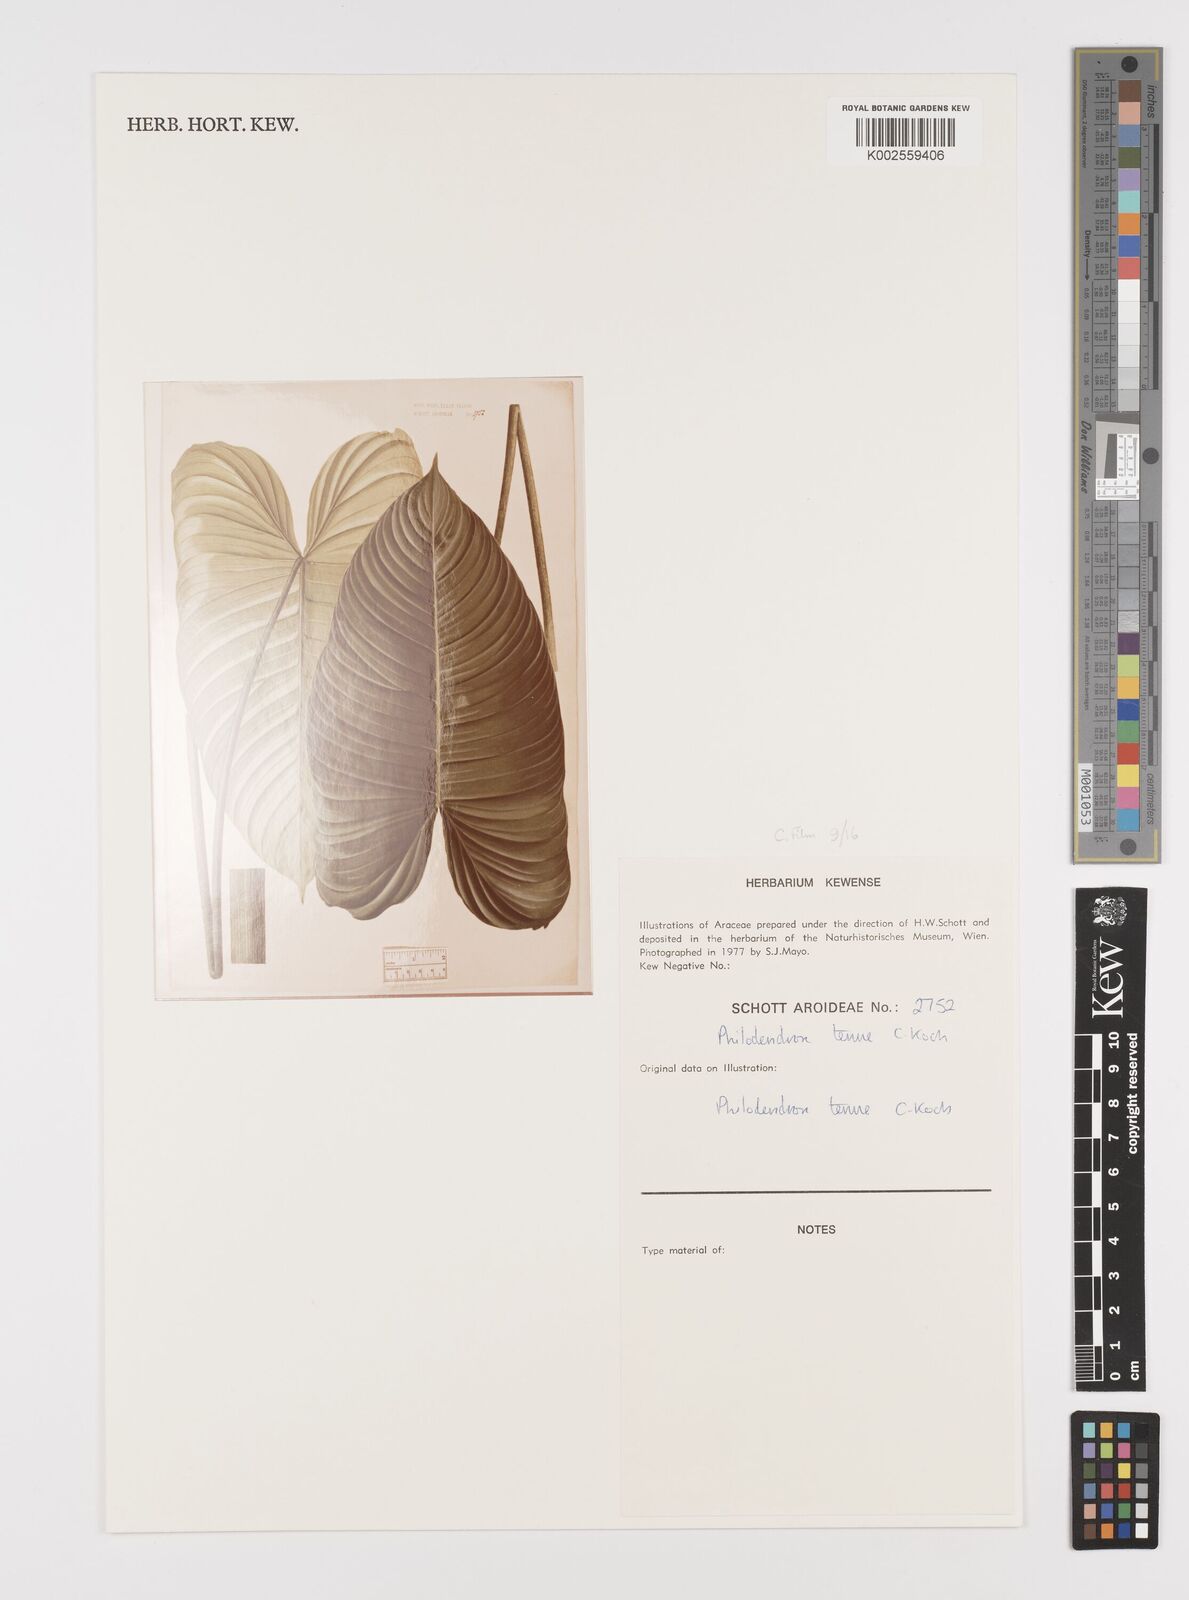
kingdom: Plantae
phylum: Tracheophyta
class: Liliopsida
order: Alismatales
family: Araceae
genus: Philodendron
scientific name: Philodendron tenue
